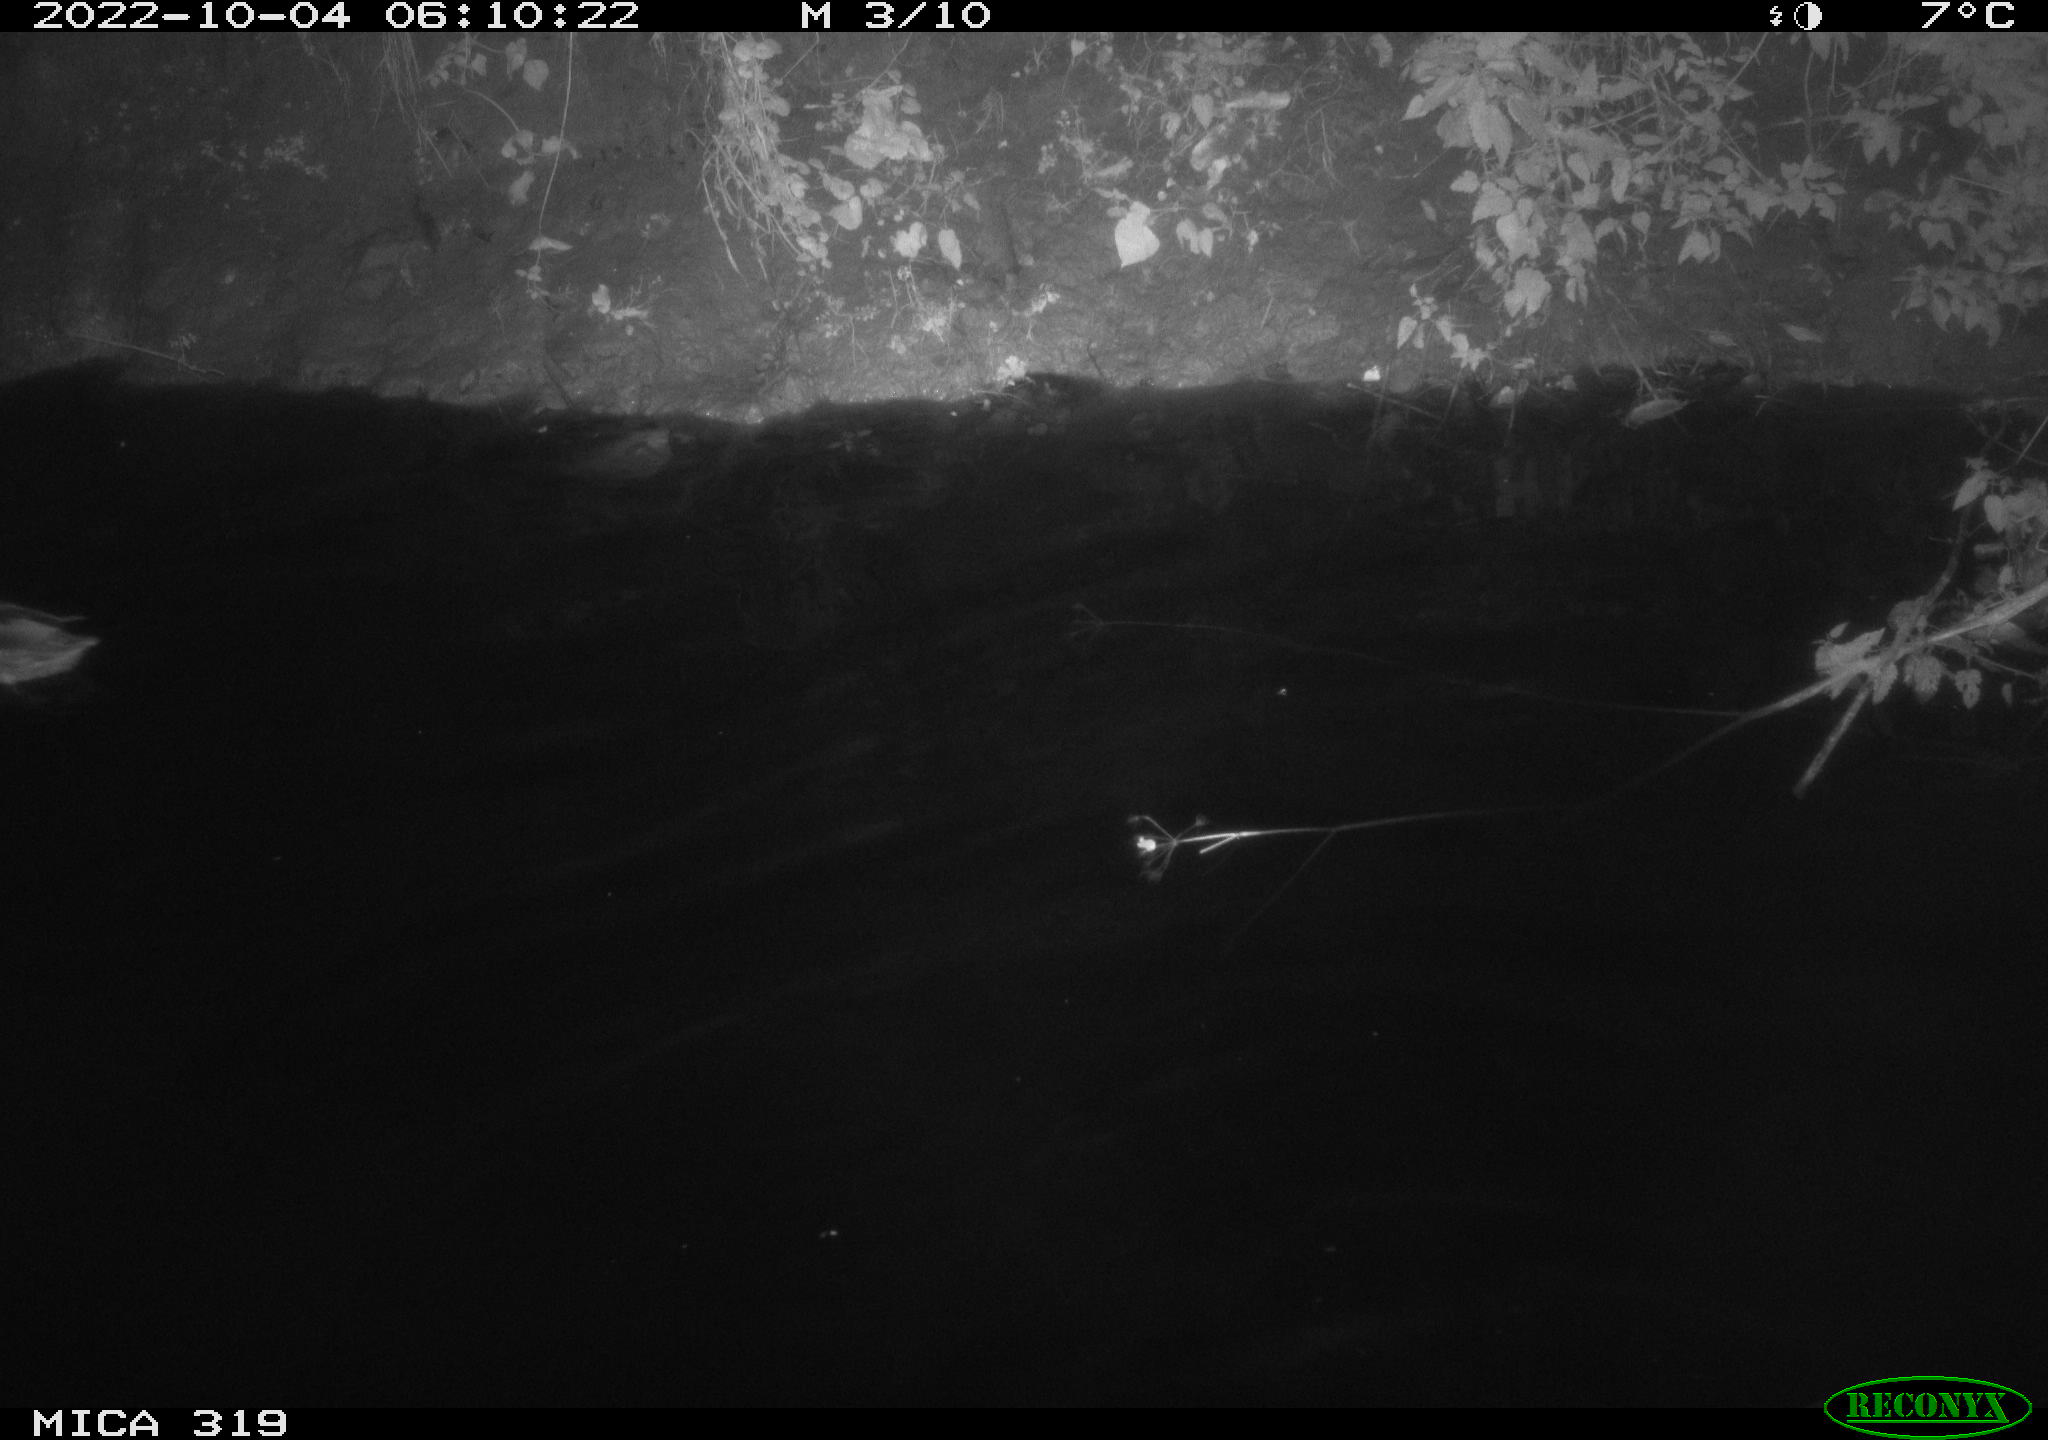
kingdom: Animalia
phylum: Chordata
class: Aves
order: Anseriformes
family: Anatidae
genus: Anas
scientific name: Anas
